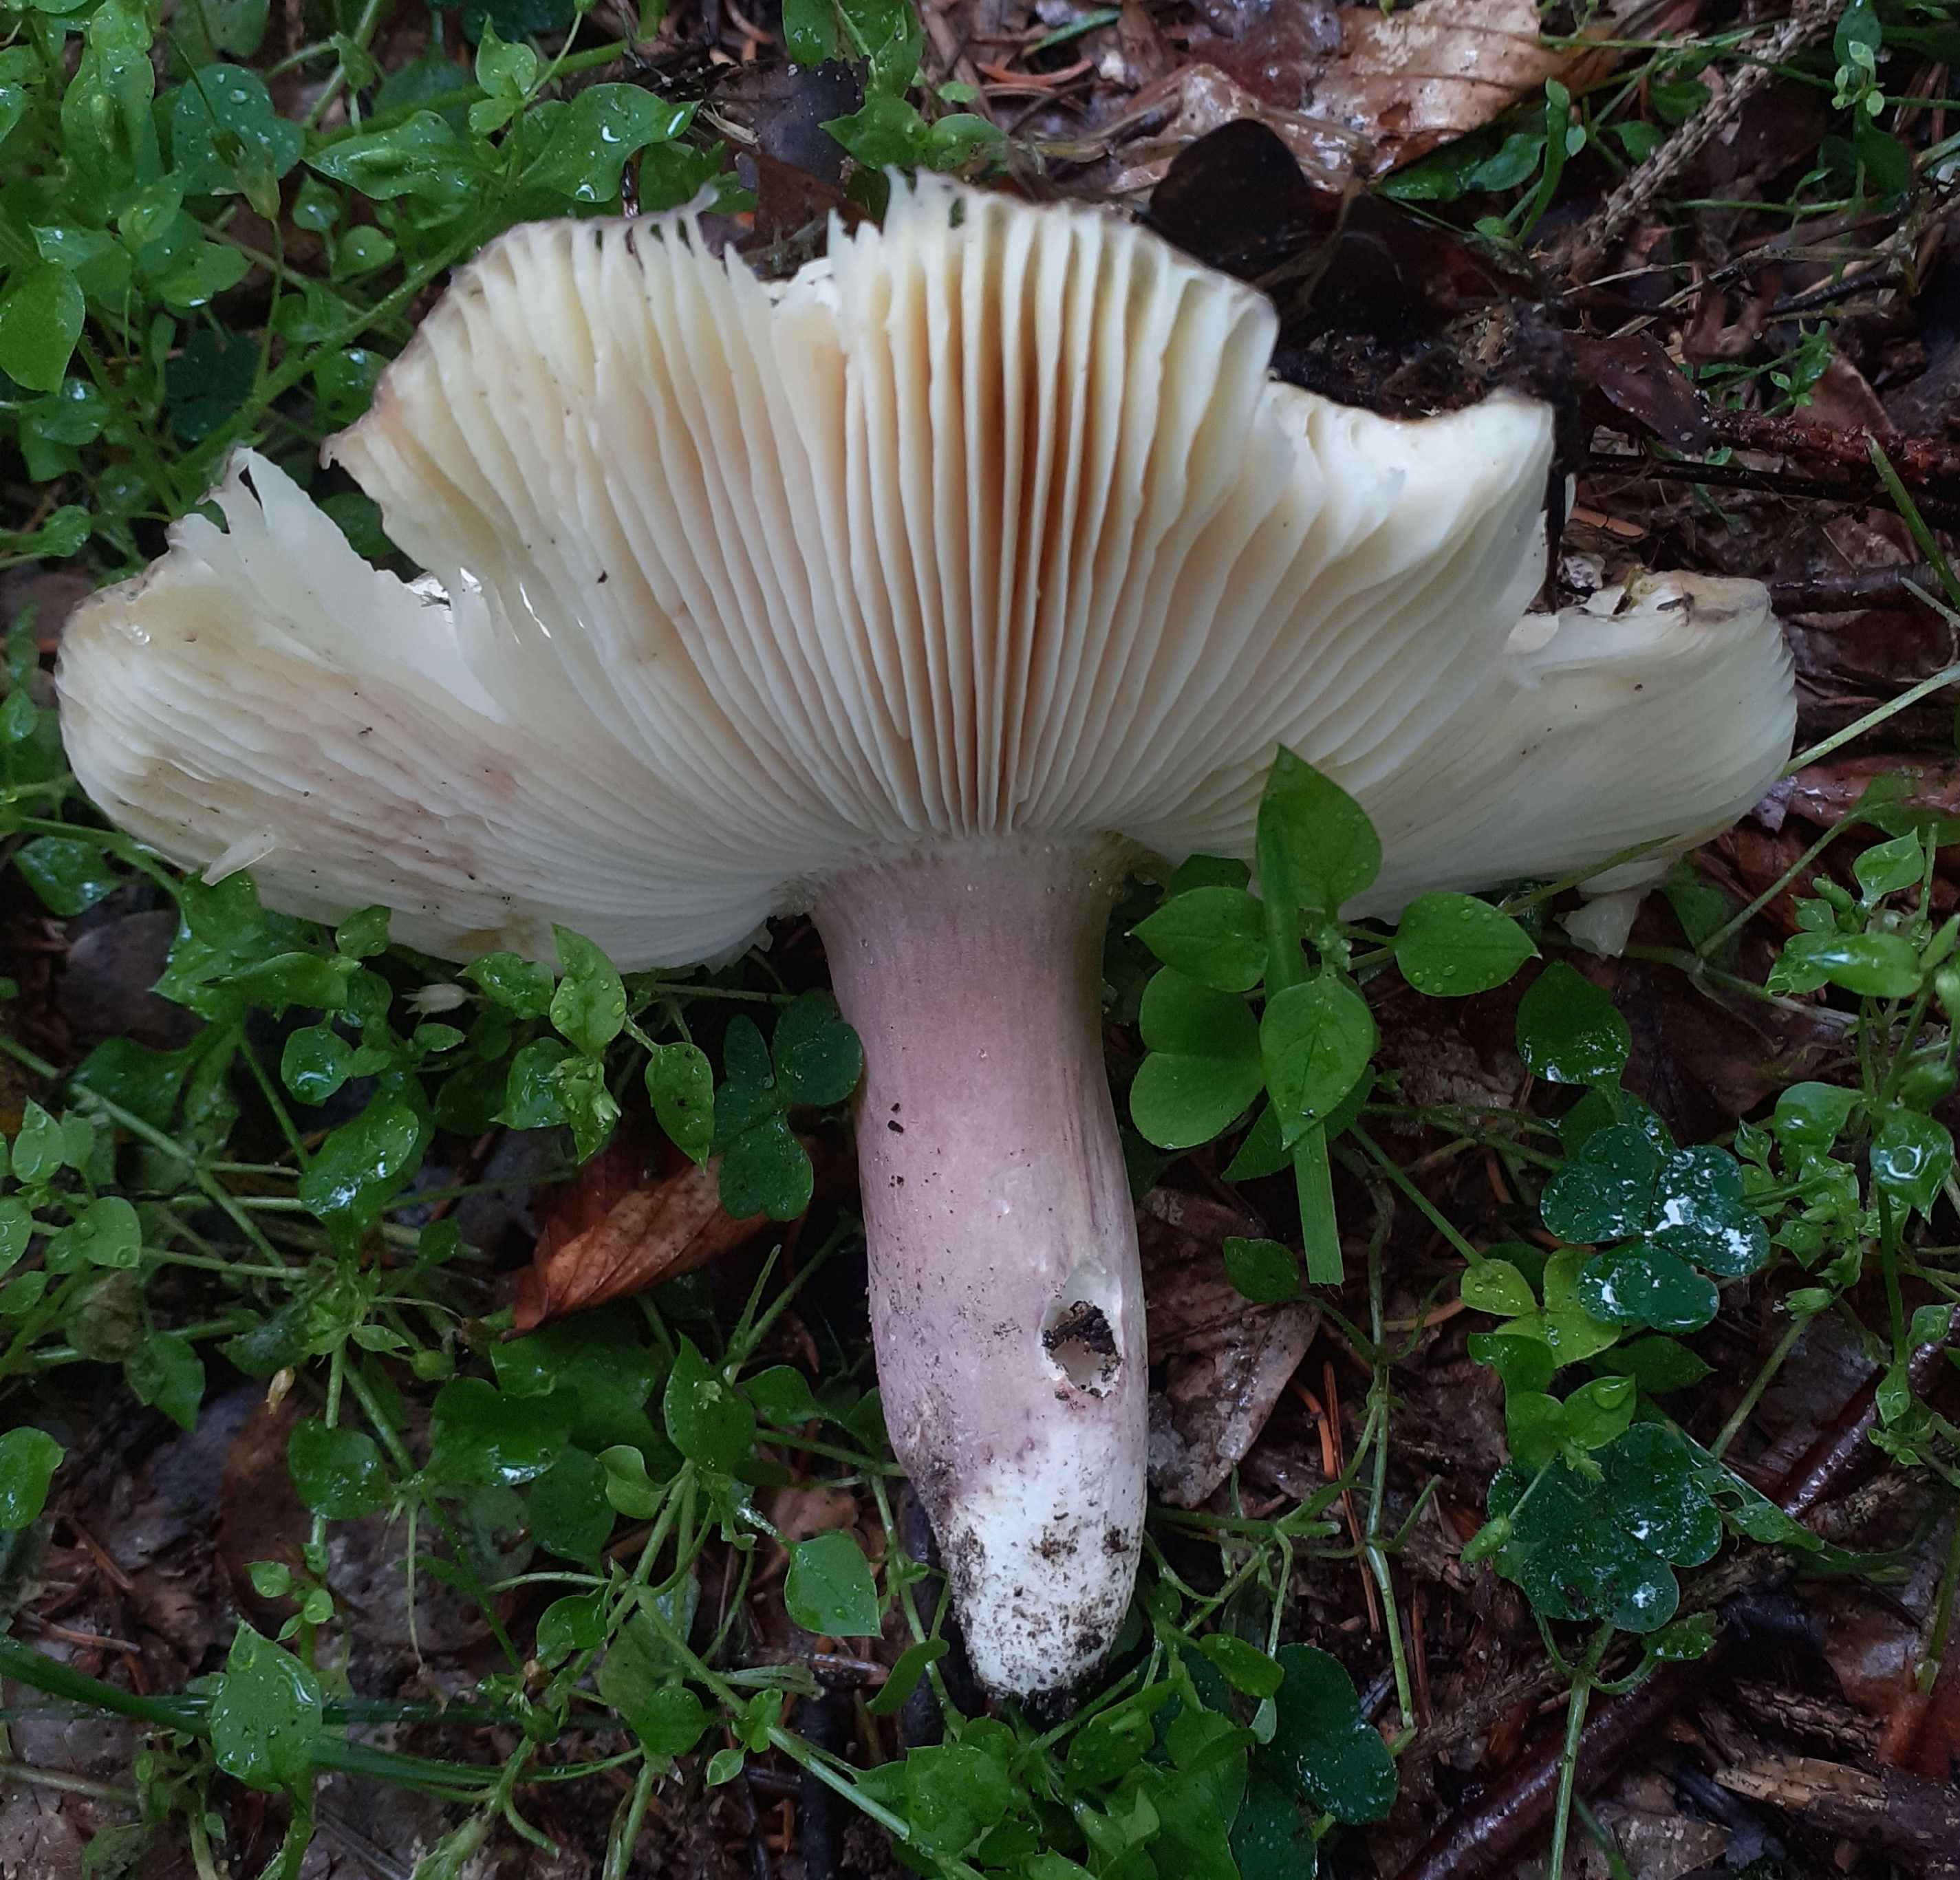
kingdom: Fungi
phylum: Basidiomycota
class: Agaricomycetes
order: Russulales
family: Russulaceae
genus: Russula
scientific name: Russula violeipes
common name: ferskengul skørhat
